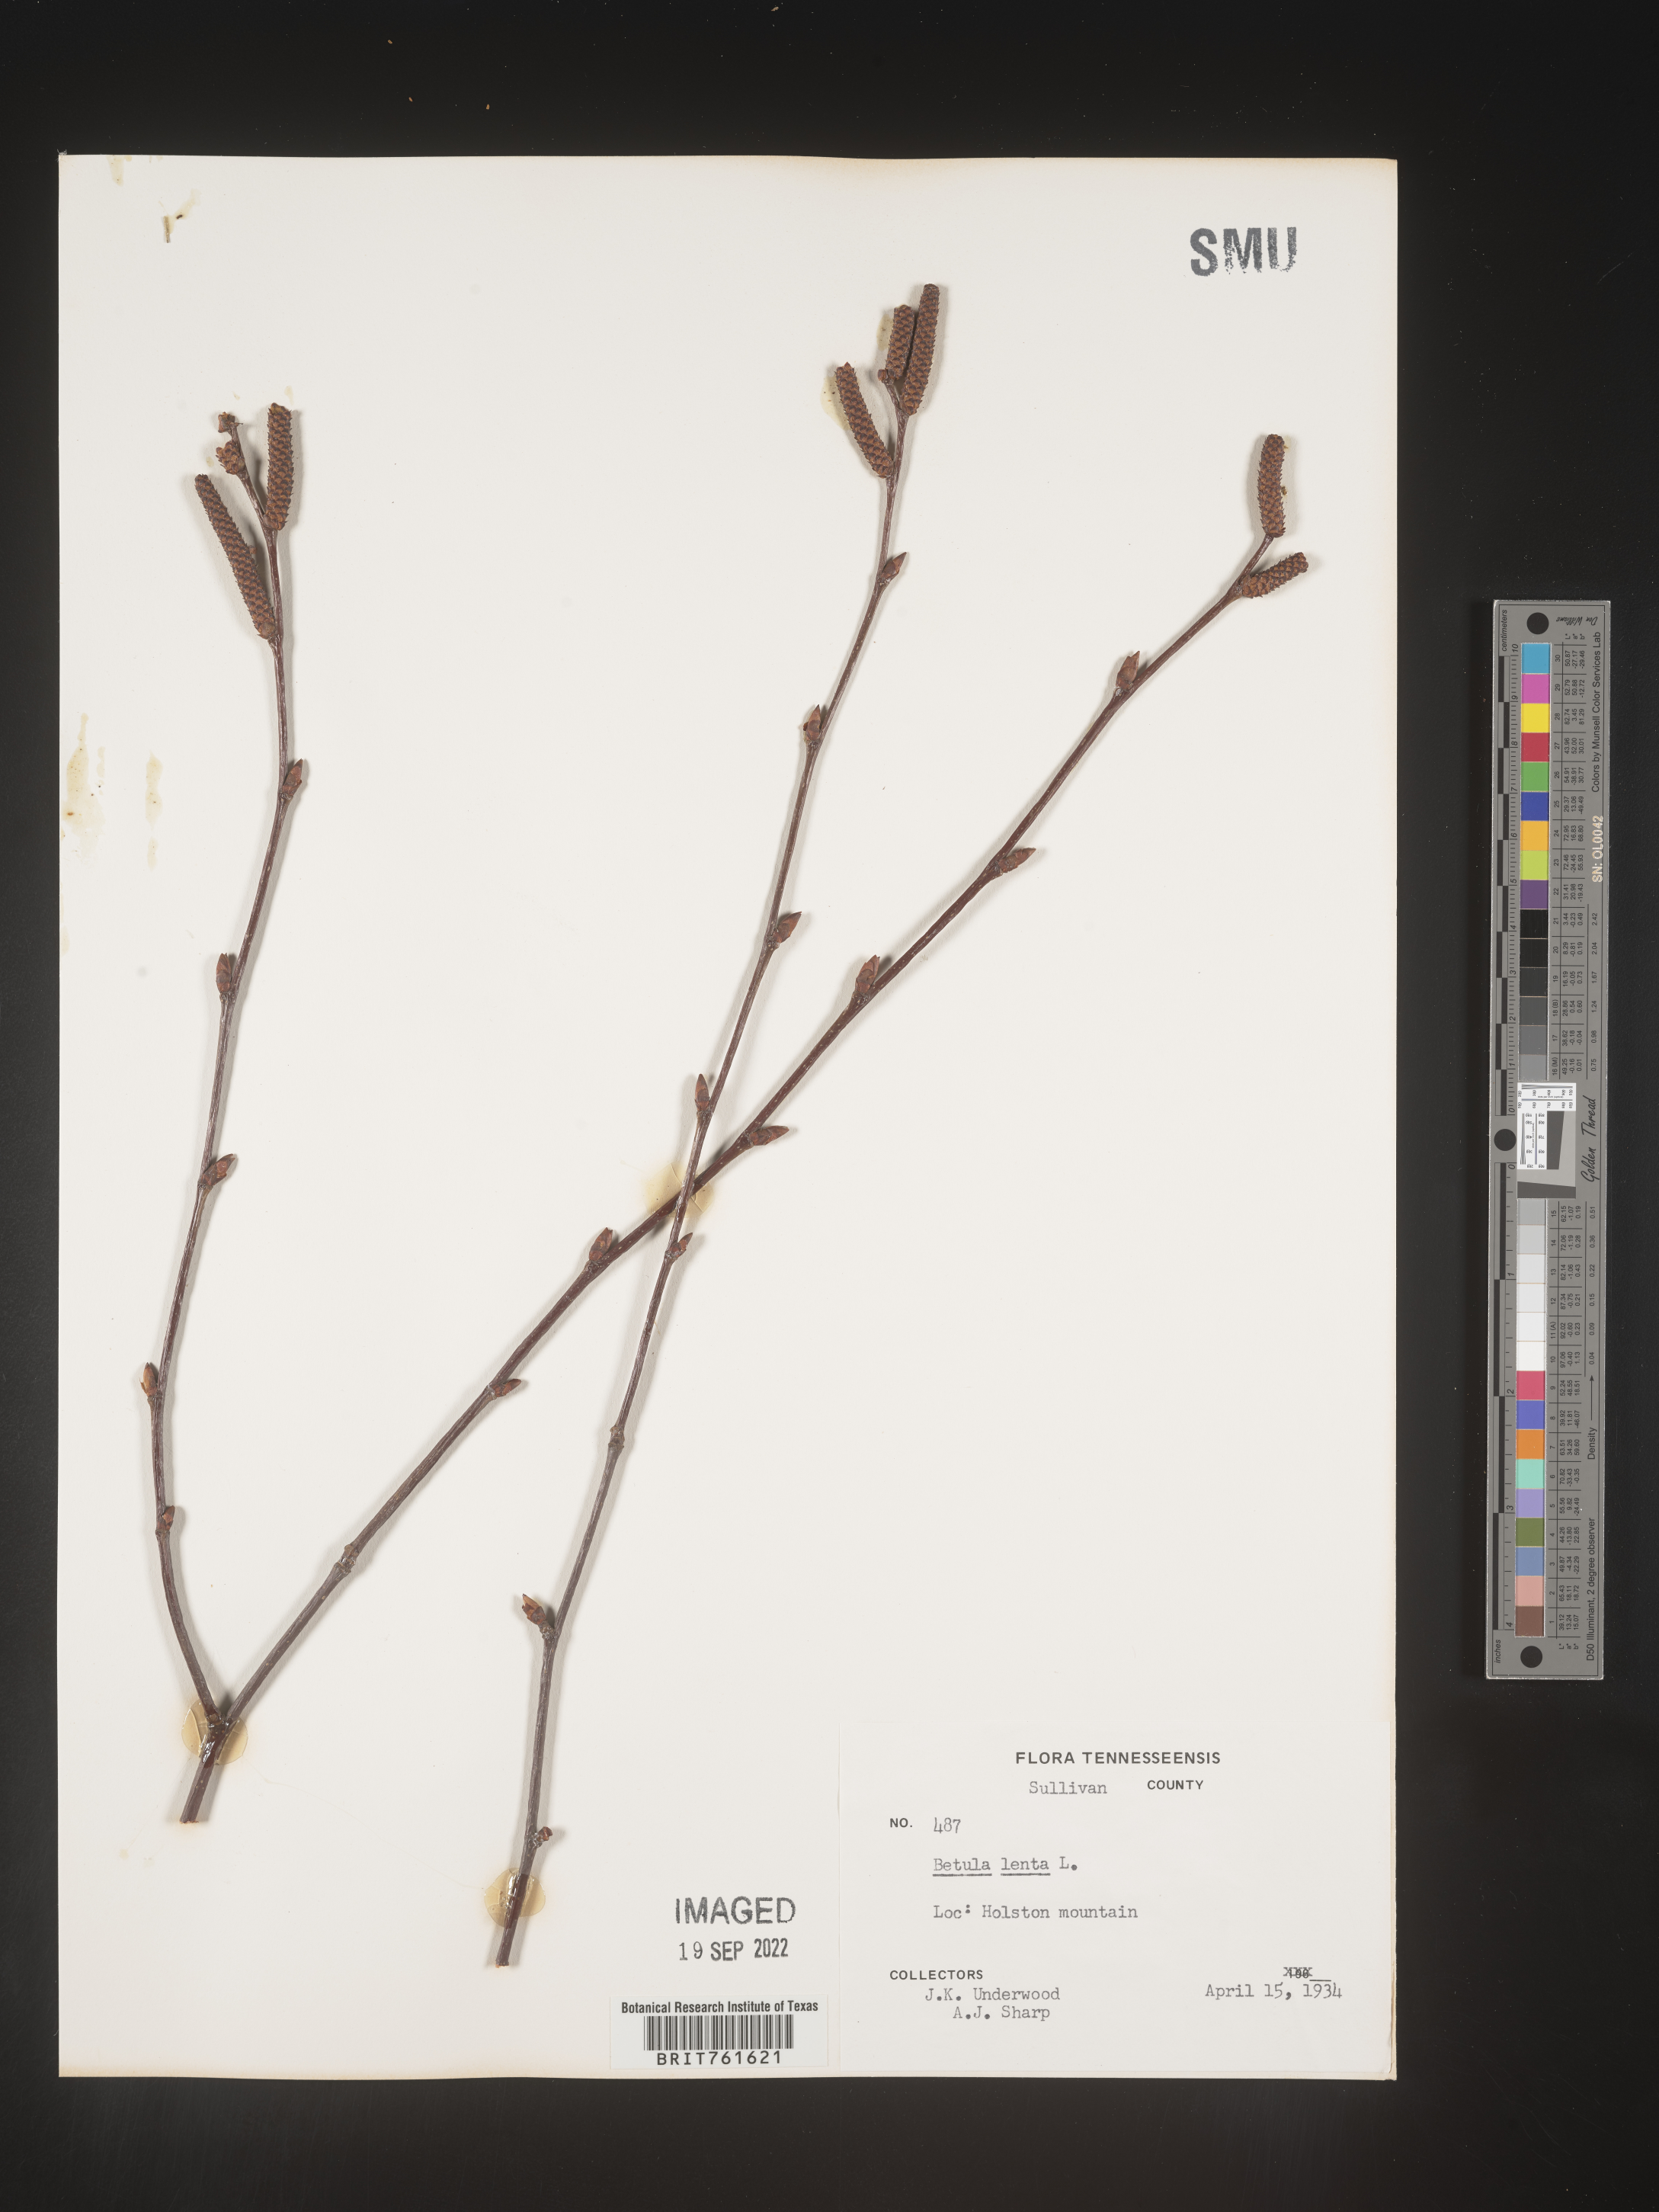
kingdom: Plantae
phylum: Tracheophyta
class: Magnoliopsida
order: Fagales
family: Betulaceae
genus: Betula
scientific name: Betula lenta
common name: Black birch
